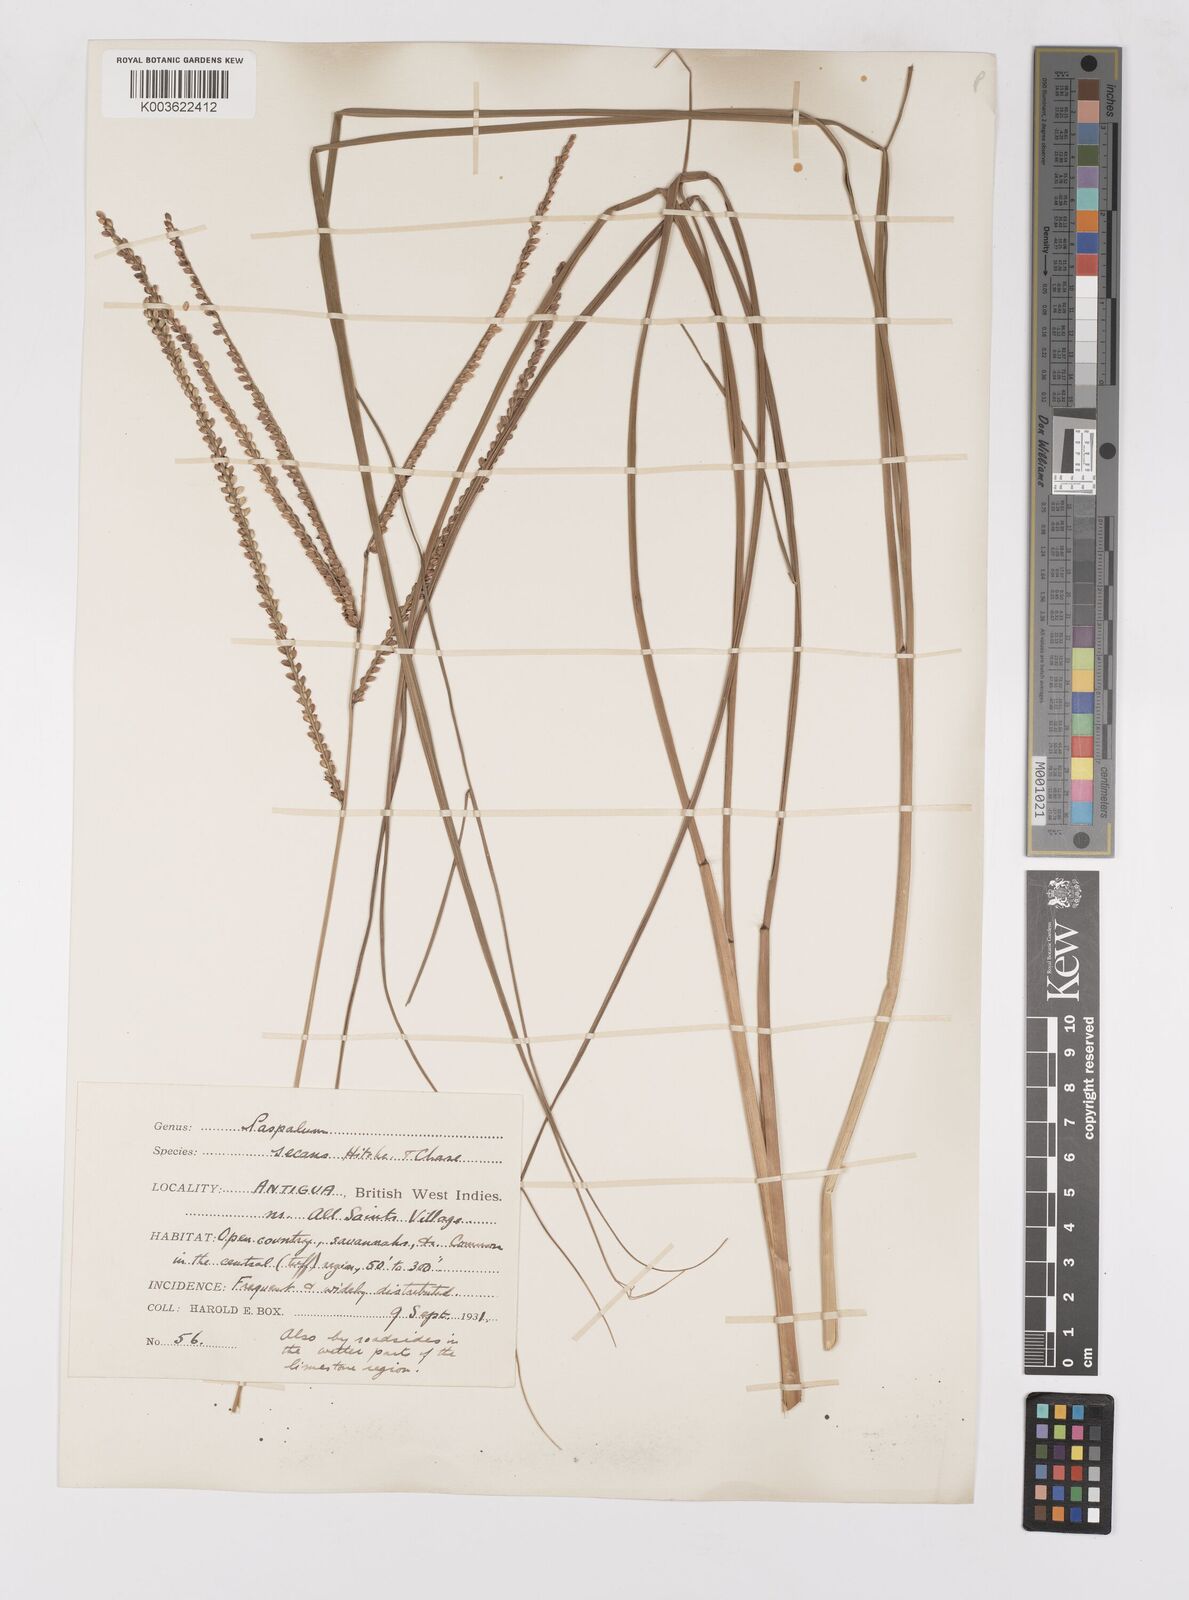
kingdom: Plantae
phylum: Tracheophyta
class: Liliopsida
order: Poales
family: Poaceae
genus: Paspalum
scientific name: Paspalum arundinaceum
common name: Thick ditch crowngrass
